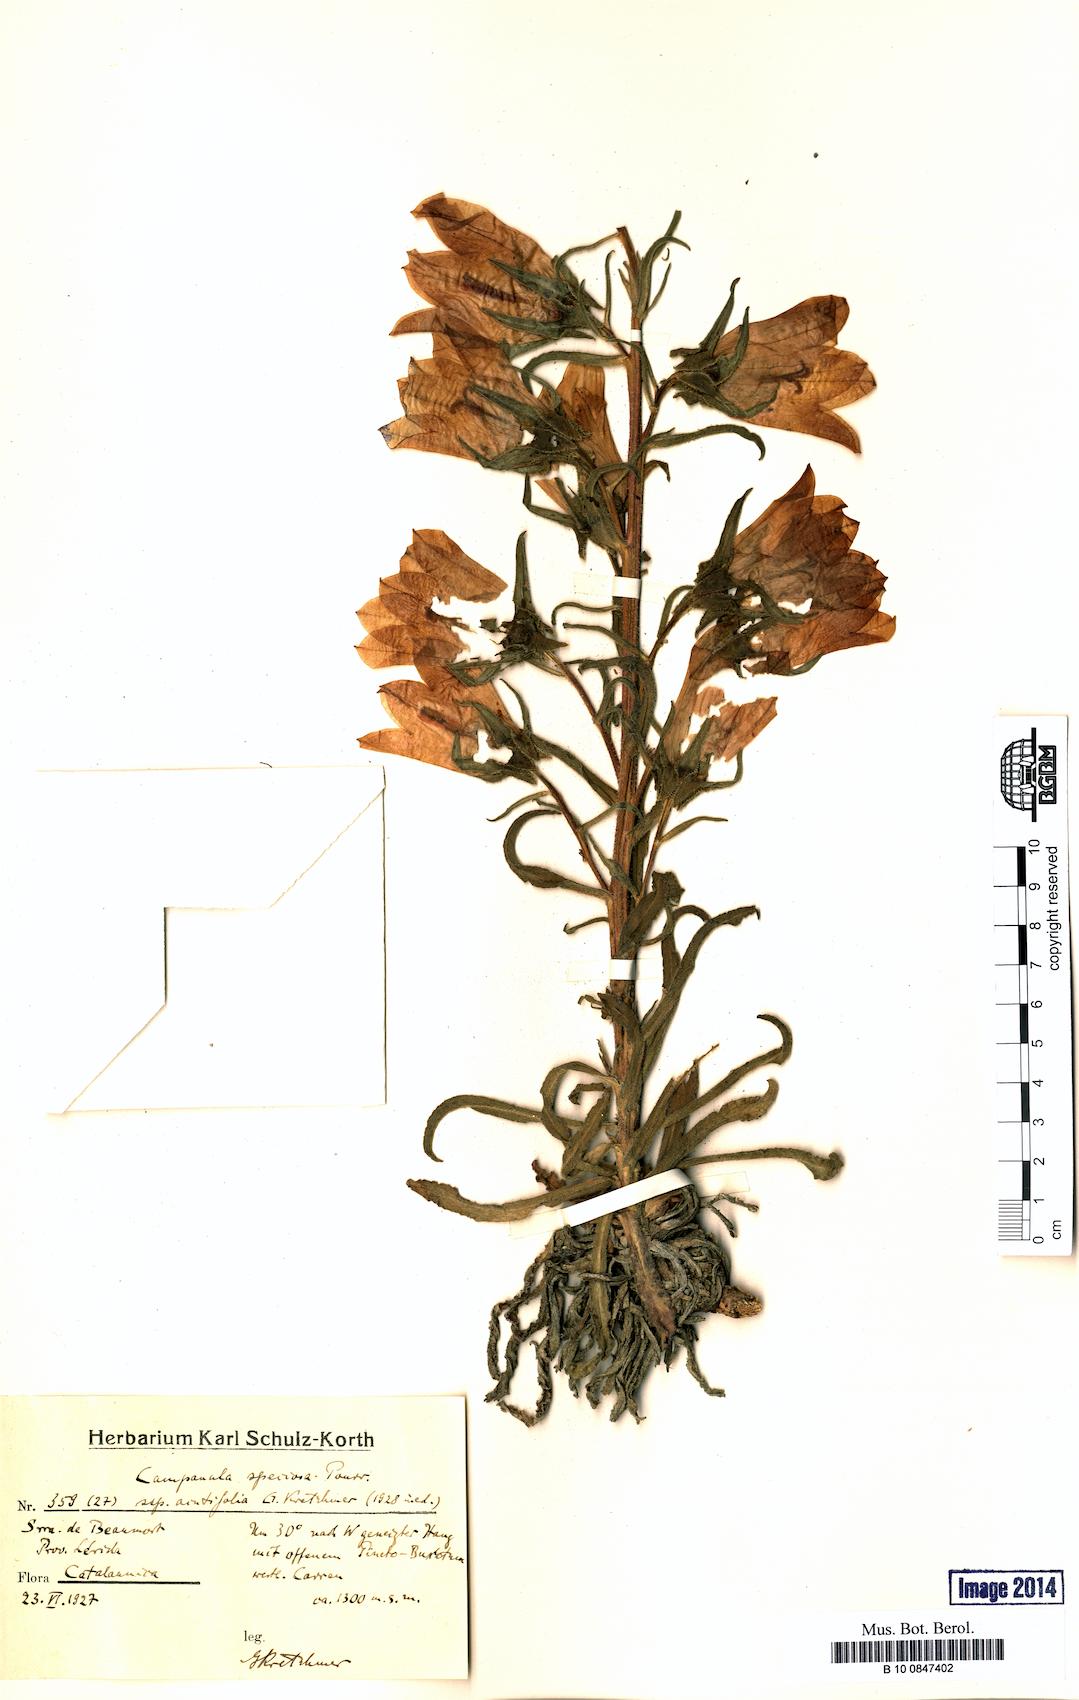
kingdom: Plantae
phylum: Tracheophyta
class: Magnoliopsida
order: Asterales
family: Campanulaceae
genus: Campanula
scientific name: Campanula speciosa
